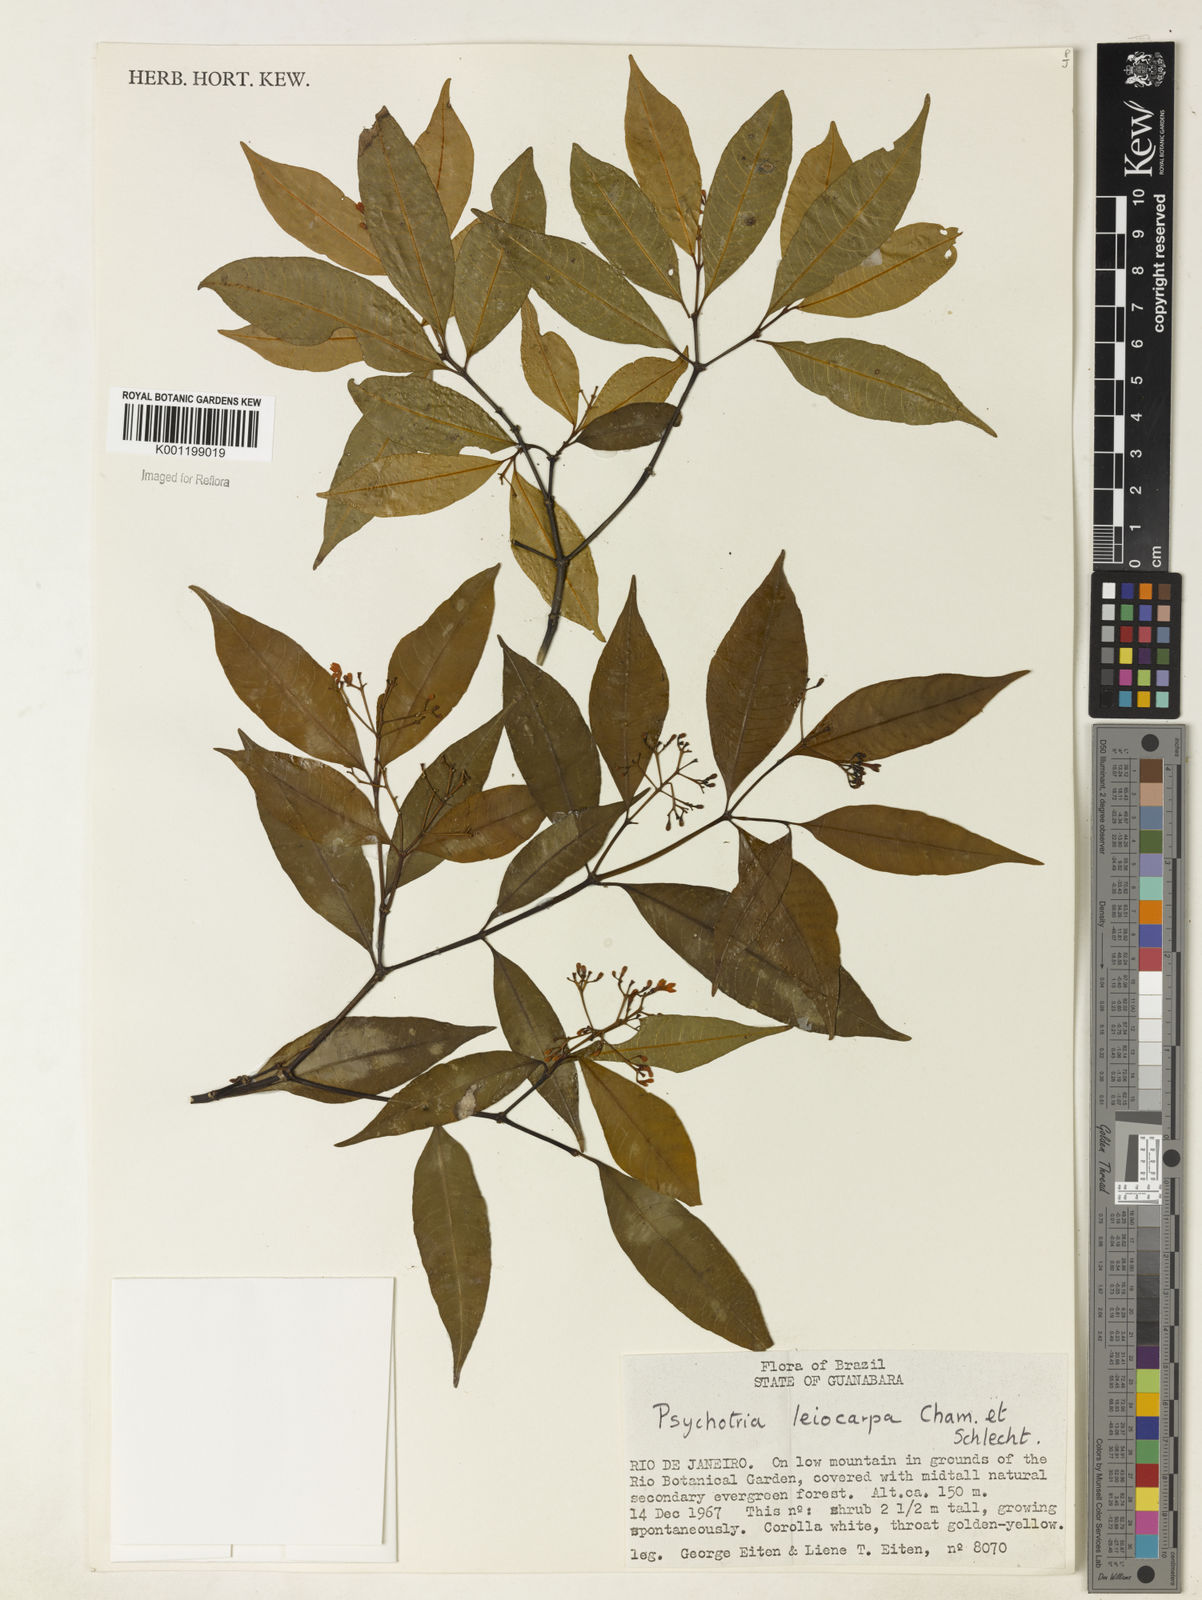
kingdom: Plantae
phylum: Tracheophyta
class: Magnoliopsida
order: Gentianales
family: Rubiaceae
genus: Psychotria
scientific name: Psychotria leiocarpa
